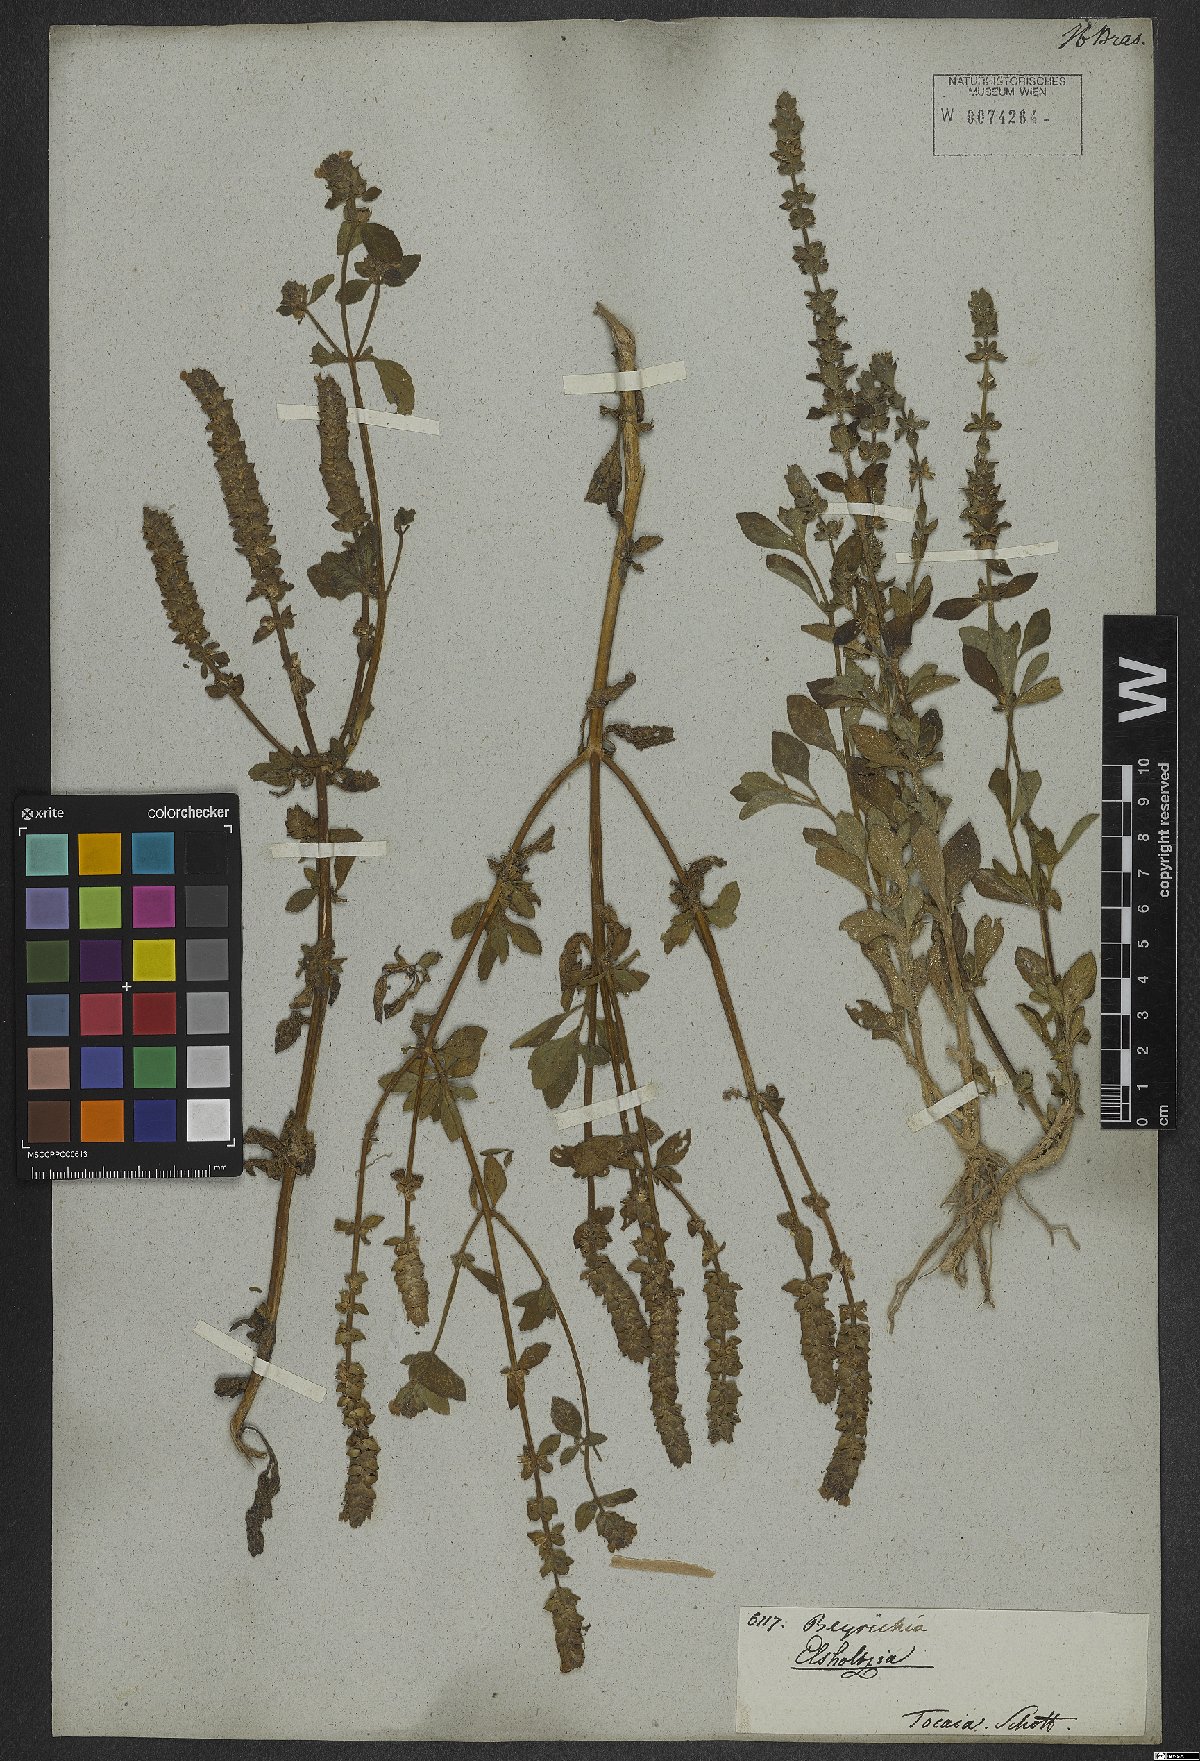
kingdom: Plantae
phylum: Tracheophyta
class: Magnoliopsida
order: Lamiales
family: Plantaginaceae
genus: Matourea
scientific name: Matourea
